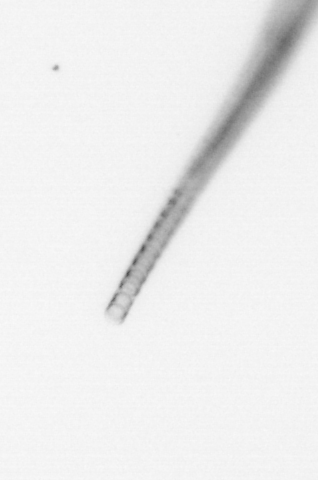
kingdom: Chromista
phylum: Ochrophyta
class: Bacillariophyceae
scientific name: Bacillariophyceae
